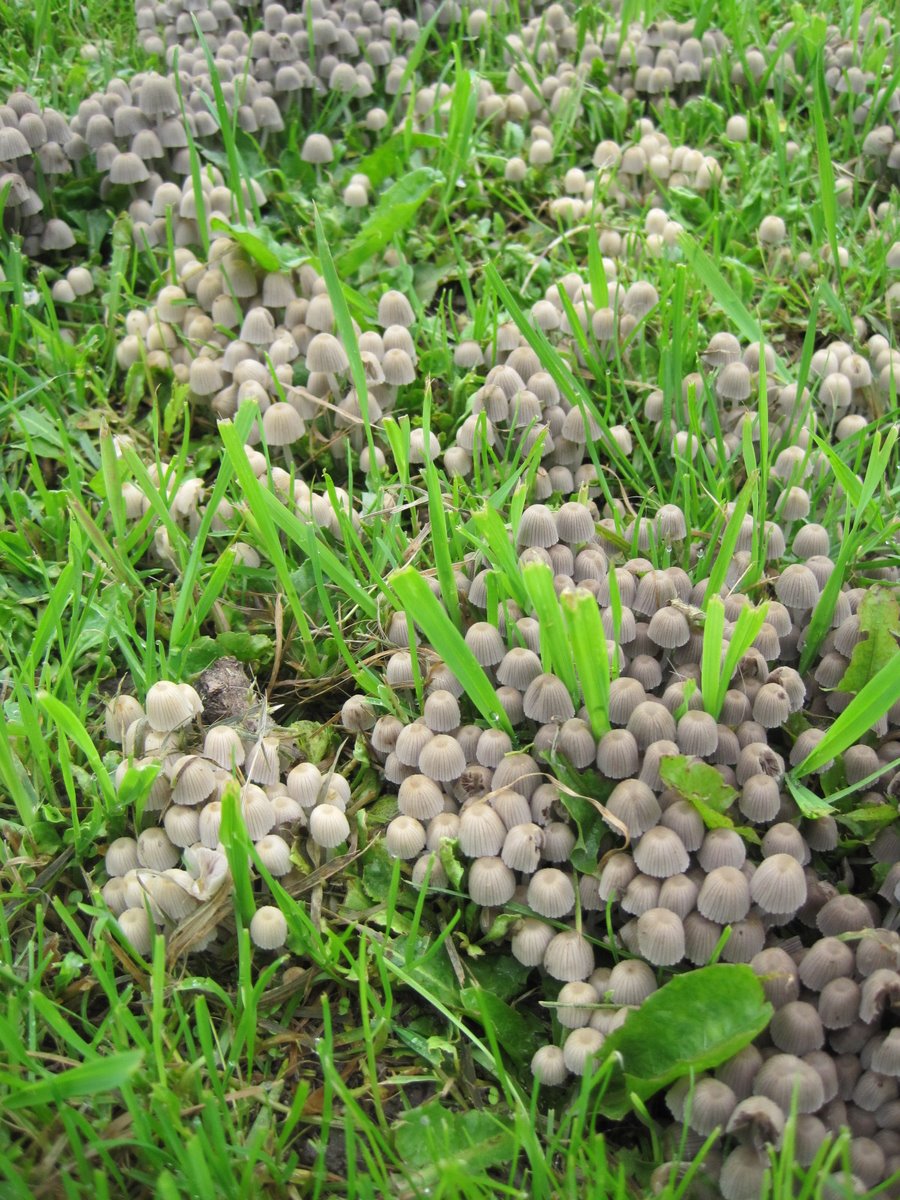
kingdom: Fungi
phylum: Basidiomycota
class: Agaricomycetes
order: Agaricales
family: Psathyrellaceae
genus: Coprinellus
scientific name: Coprinellus disseminatus
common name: bredsået blækhat
